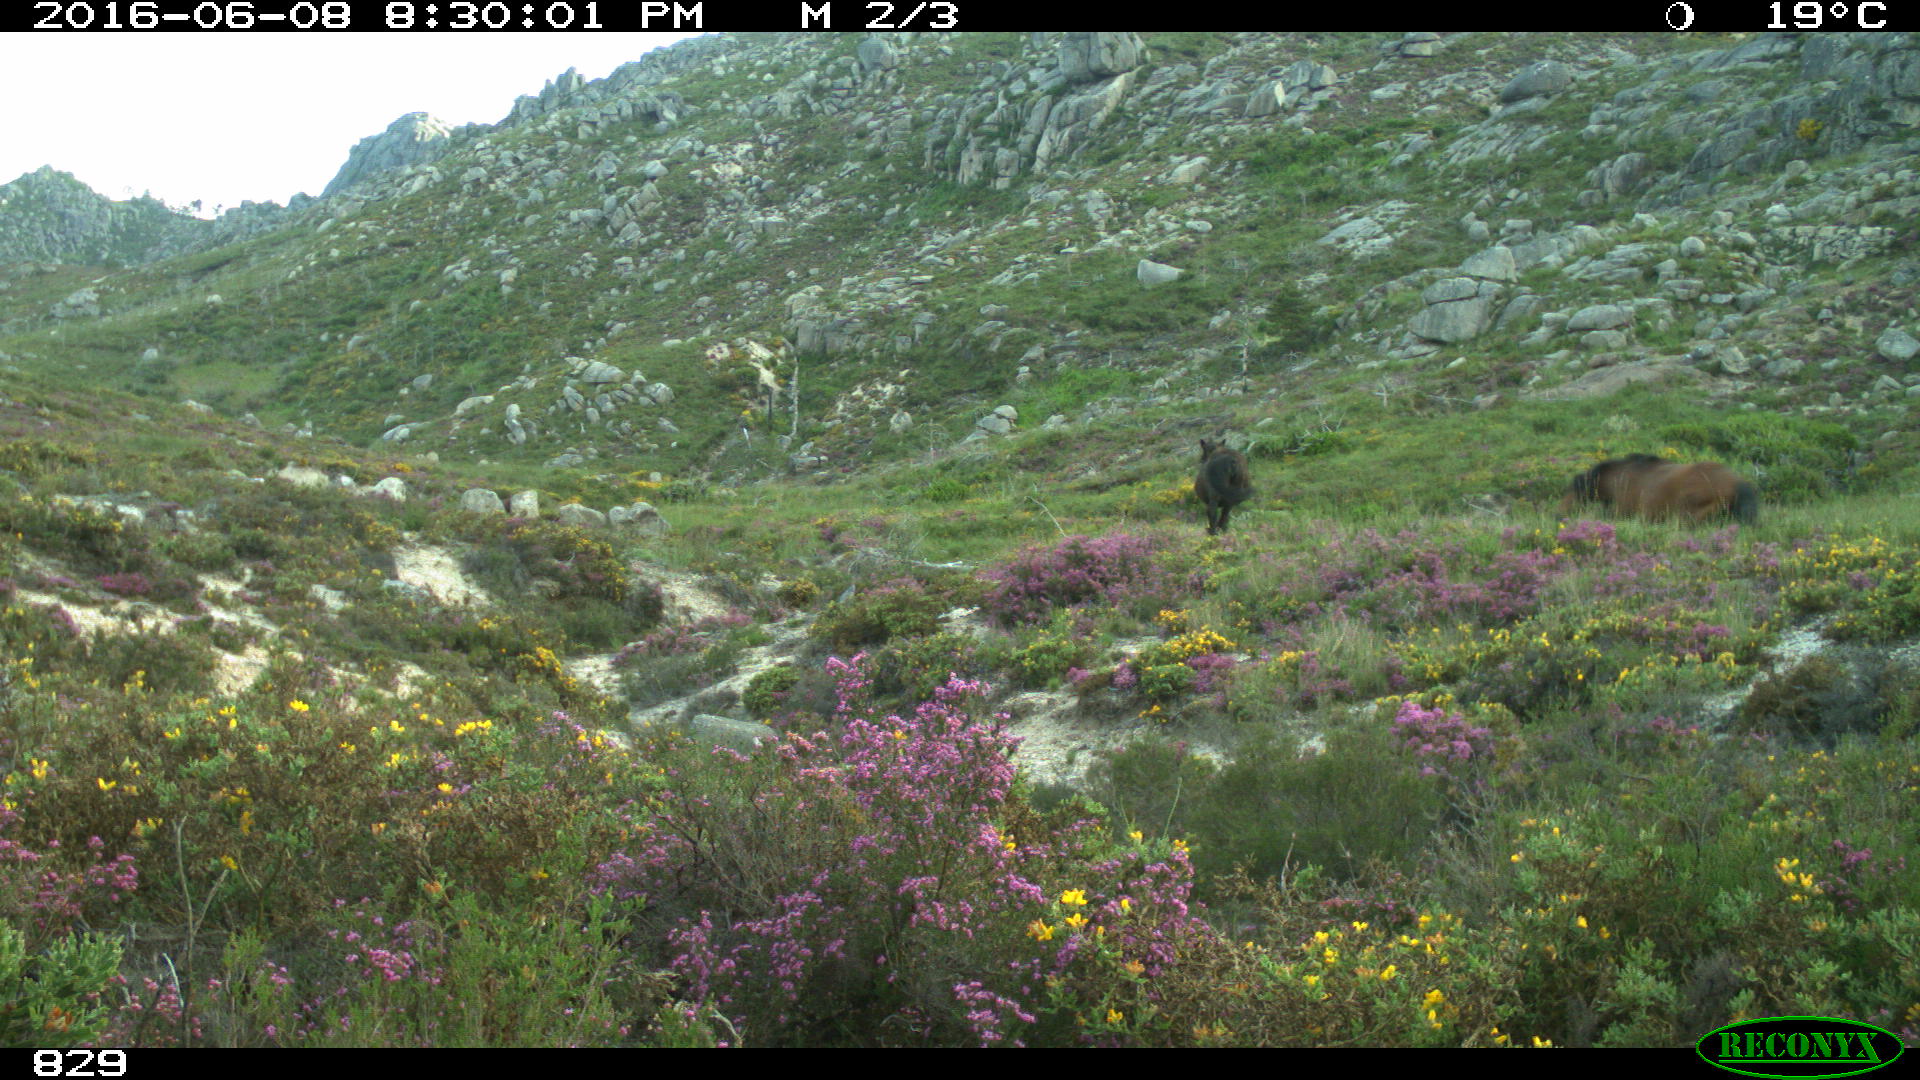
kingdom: Animalia
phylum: Chordata
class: Mammalia
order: Perissodactyla
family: Equidae
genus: Equus
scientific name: Equus caballus
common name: Horse
